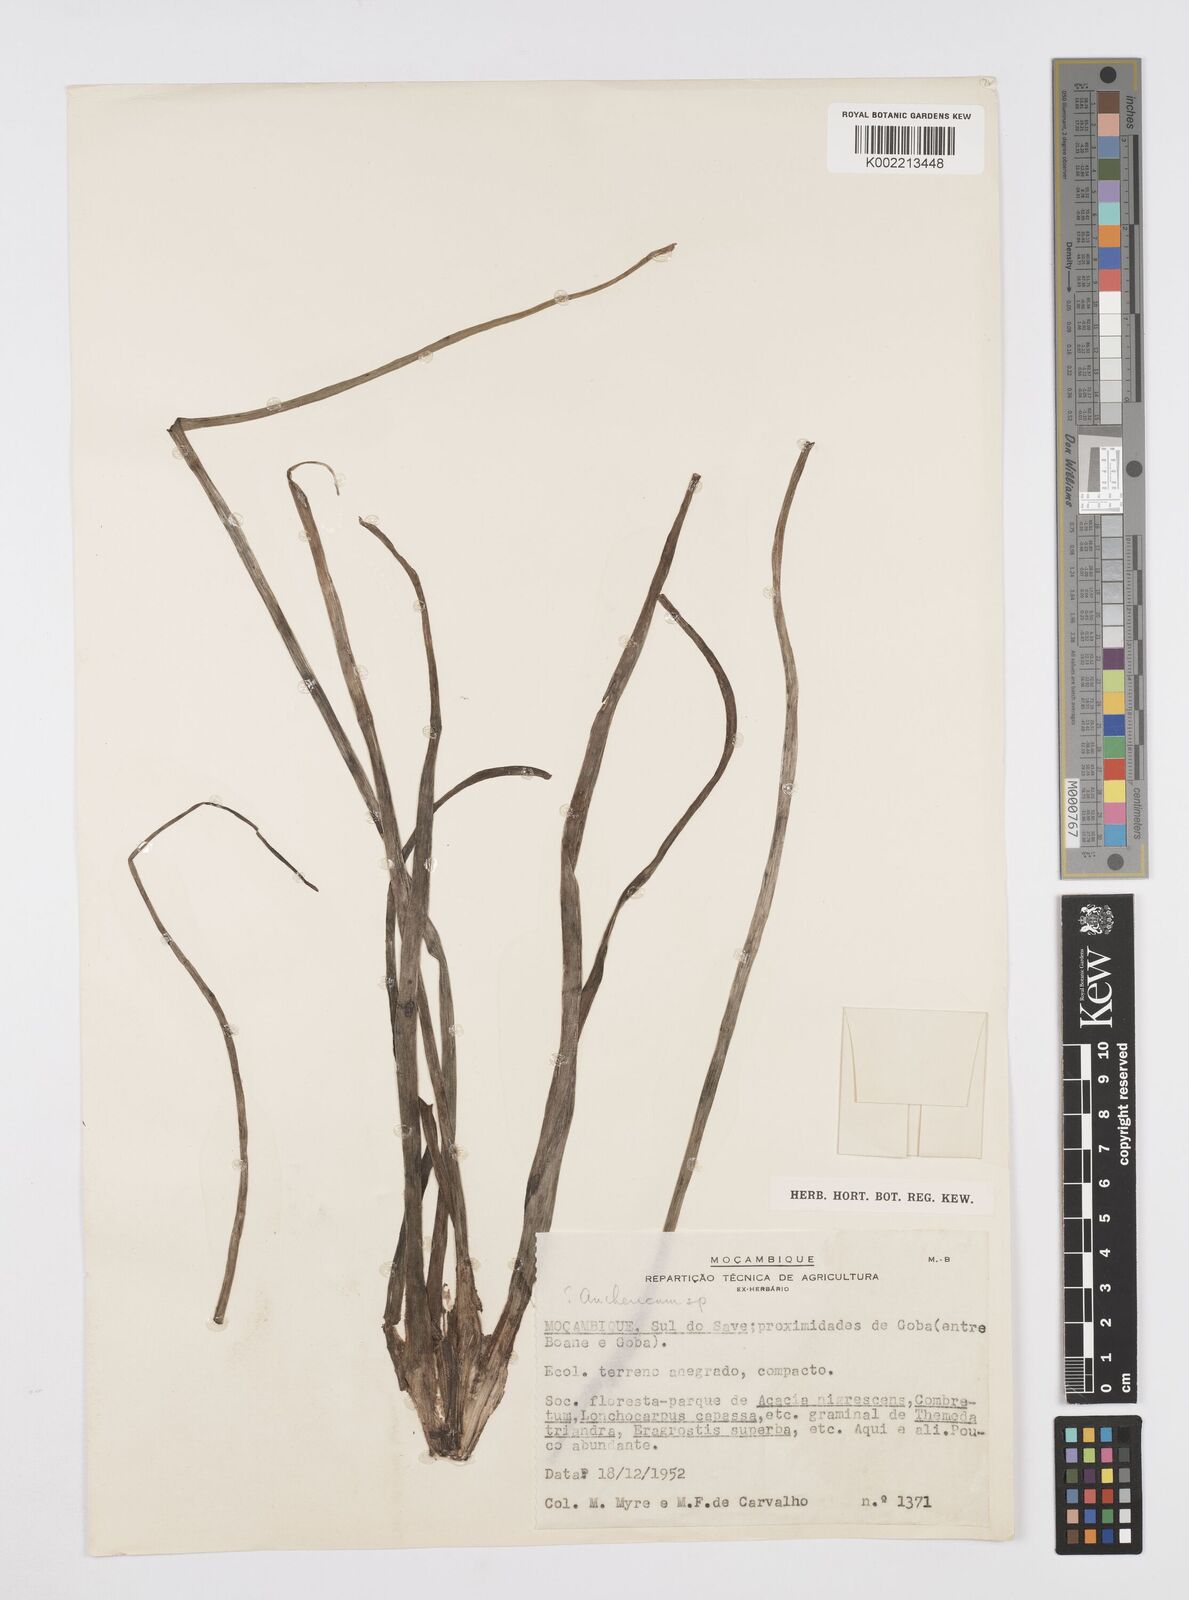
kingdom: Plantae
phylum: Tracheophyta
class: Liliopsida
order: Asparagales
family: Asphodelaceae
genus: Trachyandra
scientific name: Trachyandra saltii
